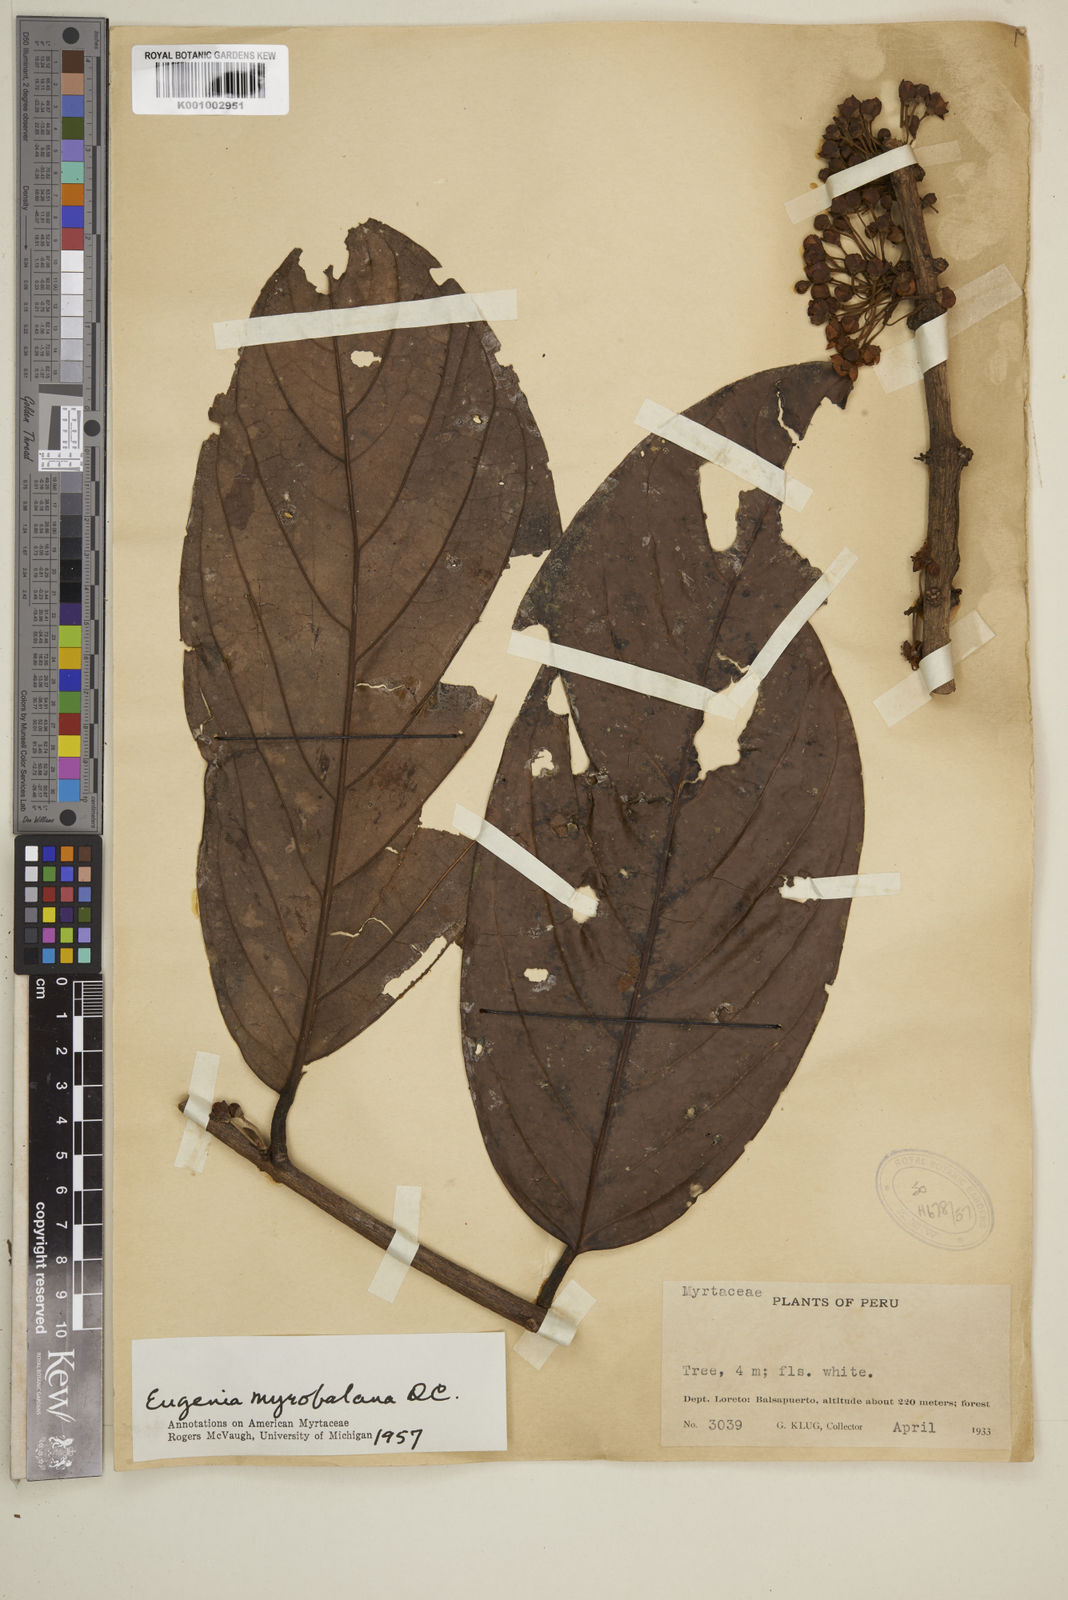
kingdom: Plantae
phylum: Tracheophyta
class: Magnoliopsida
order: Myrtales
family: Myrtaceae
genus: Eugenia
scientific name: Eugenia myrobalana
